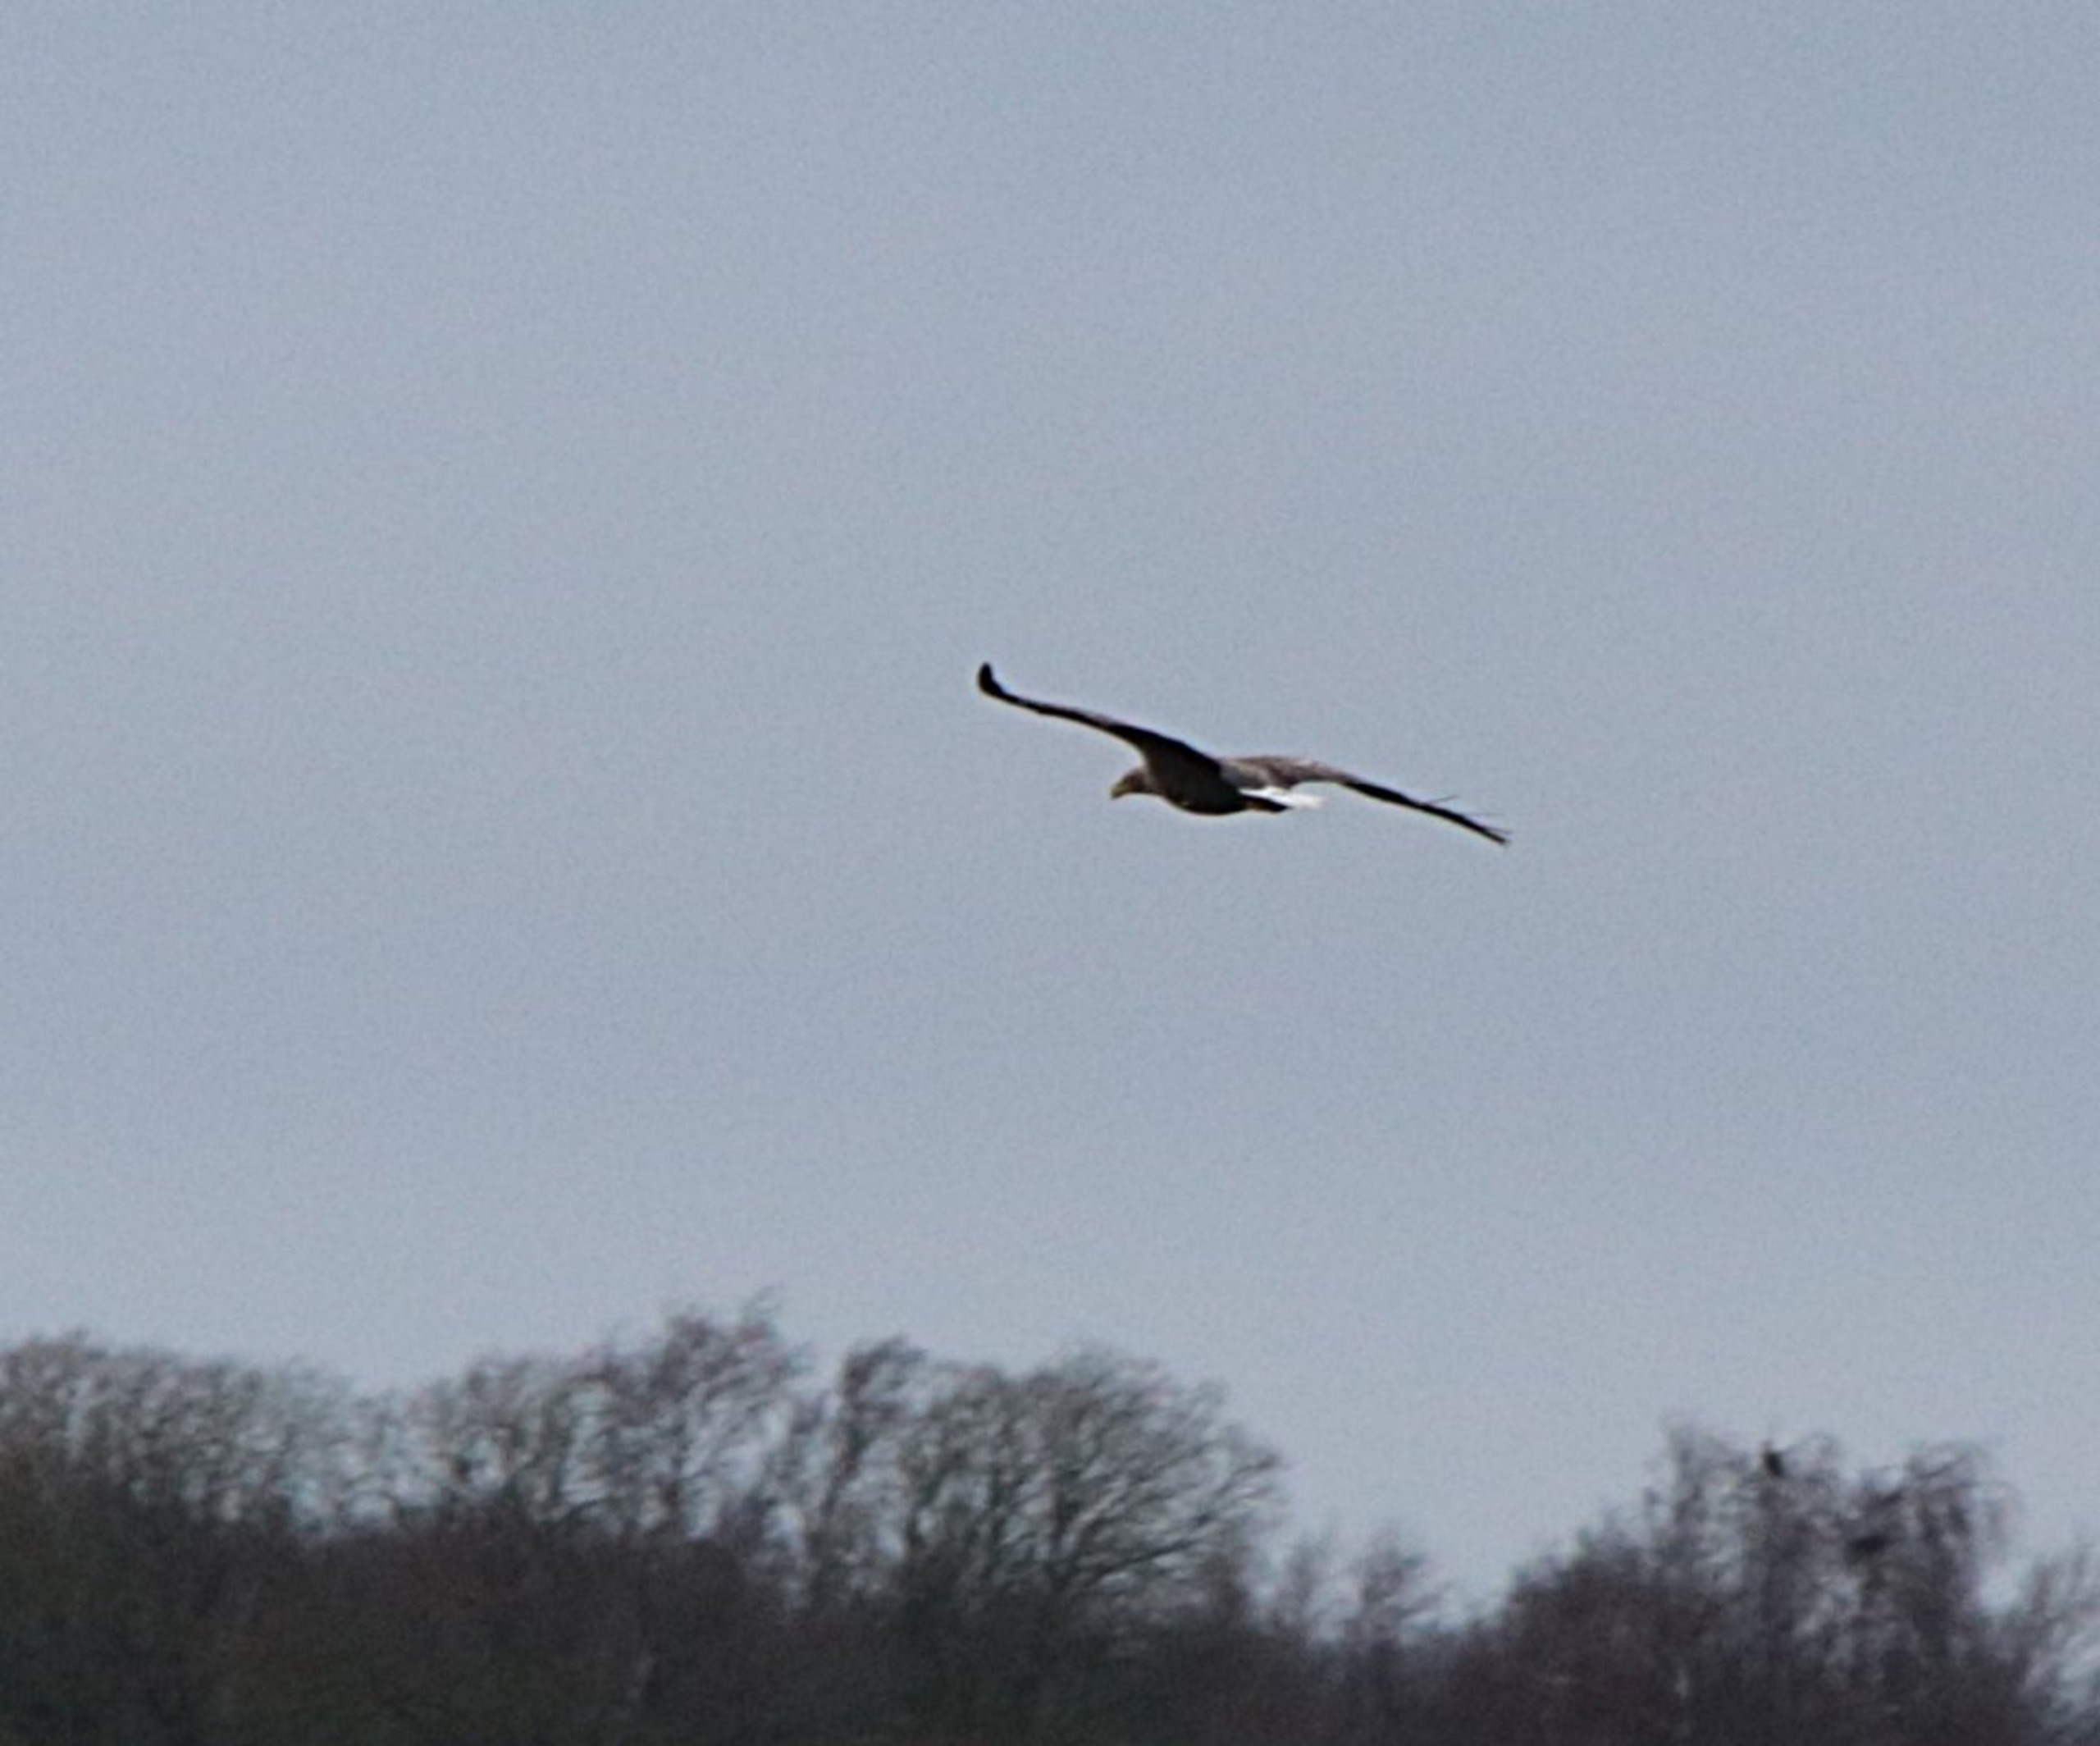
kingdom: Animalia
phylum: Chordata
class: Aves
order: Accipitriformes
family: Accipitridae
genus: Haliaeetus
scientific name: Haliaeetus albicilla
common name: Havørn
